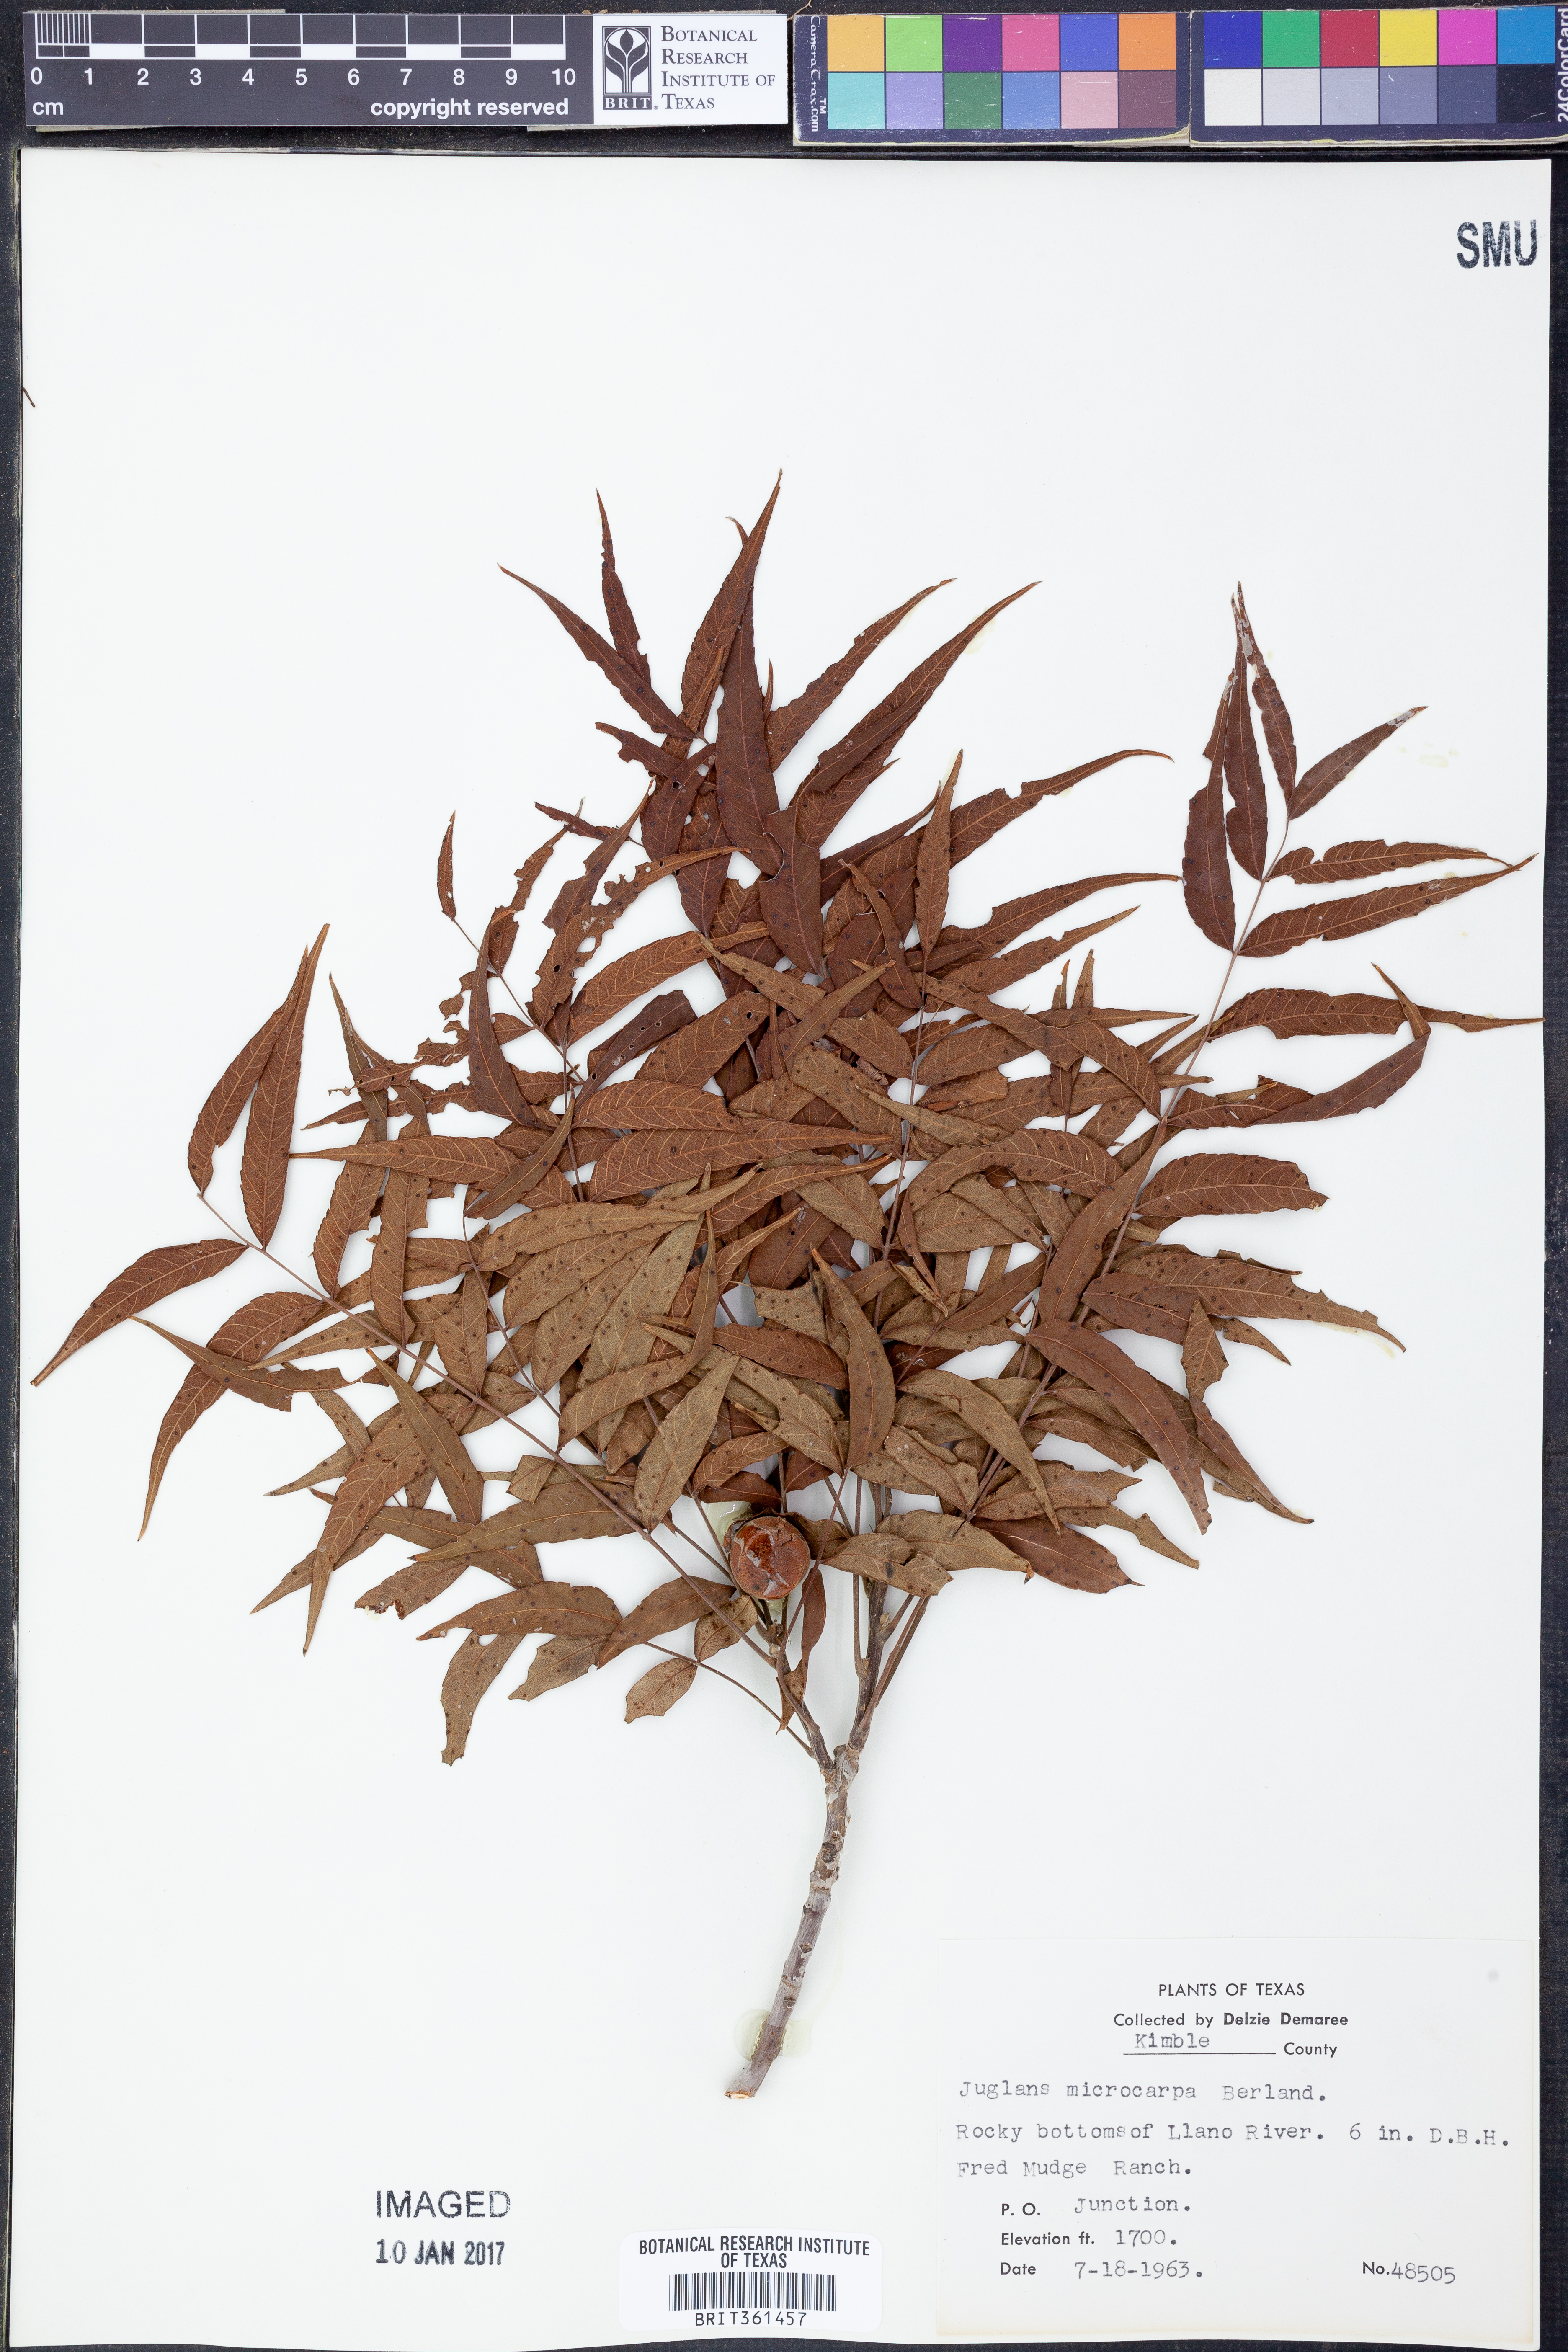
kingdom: Plantae
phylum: Tracheophyta
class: Magnoliopsida
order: Fagales
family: Juglandaceae
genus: Juglans
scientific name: Juglans microcarpa
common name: Texas walnut
